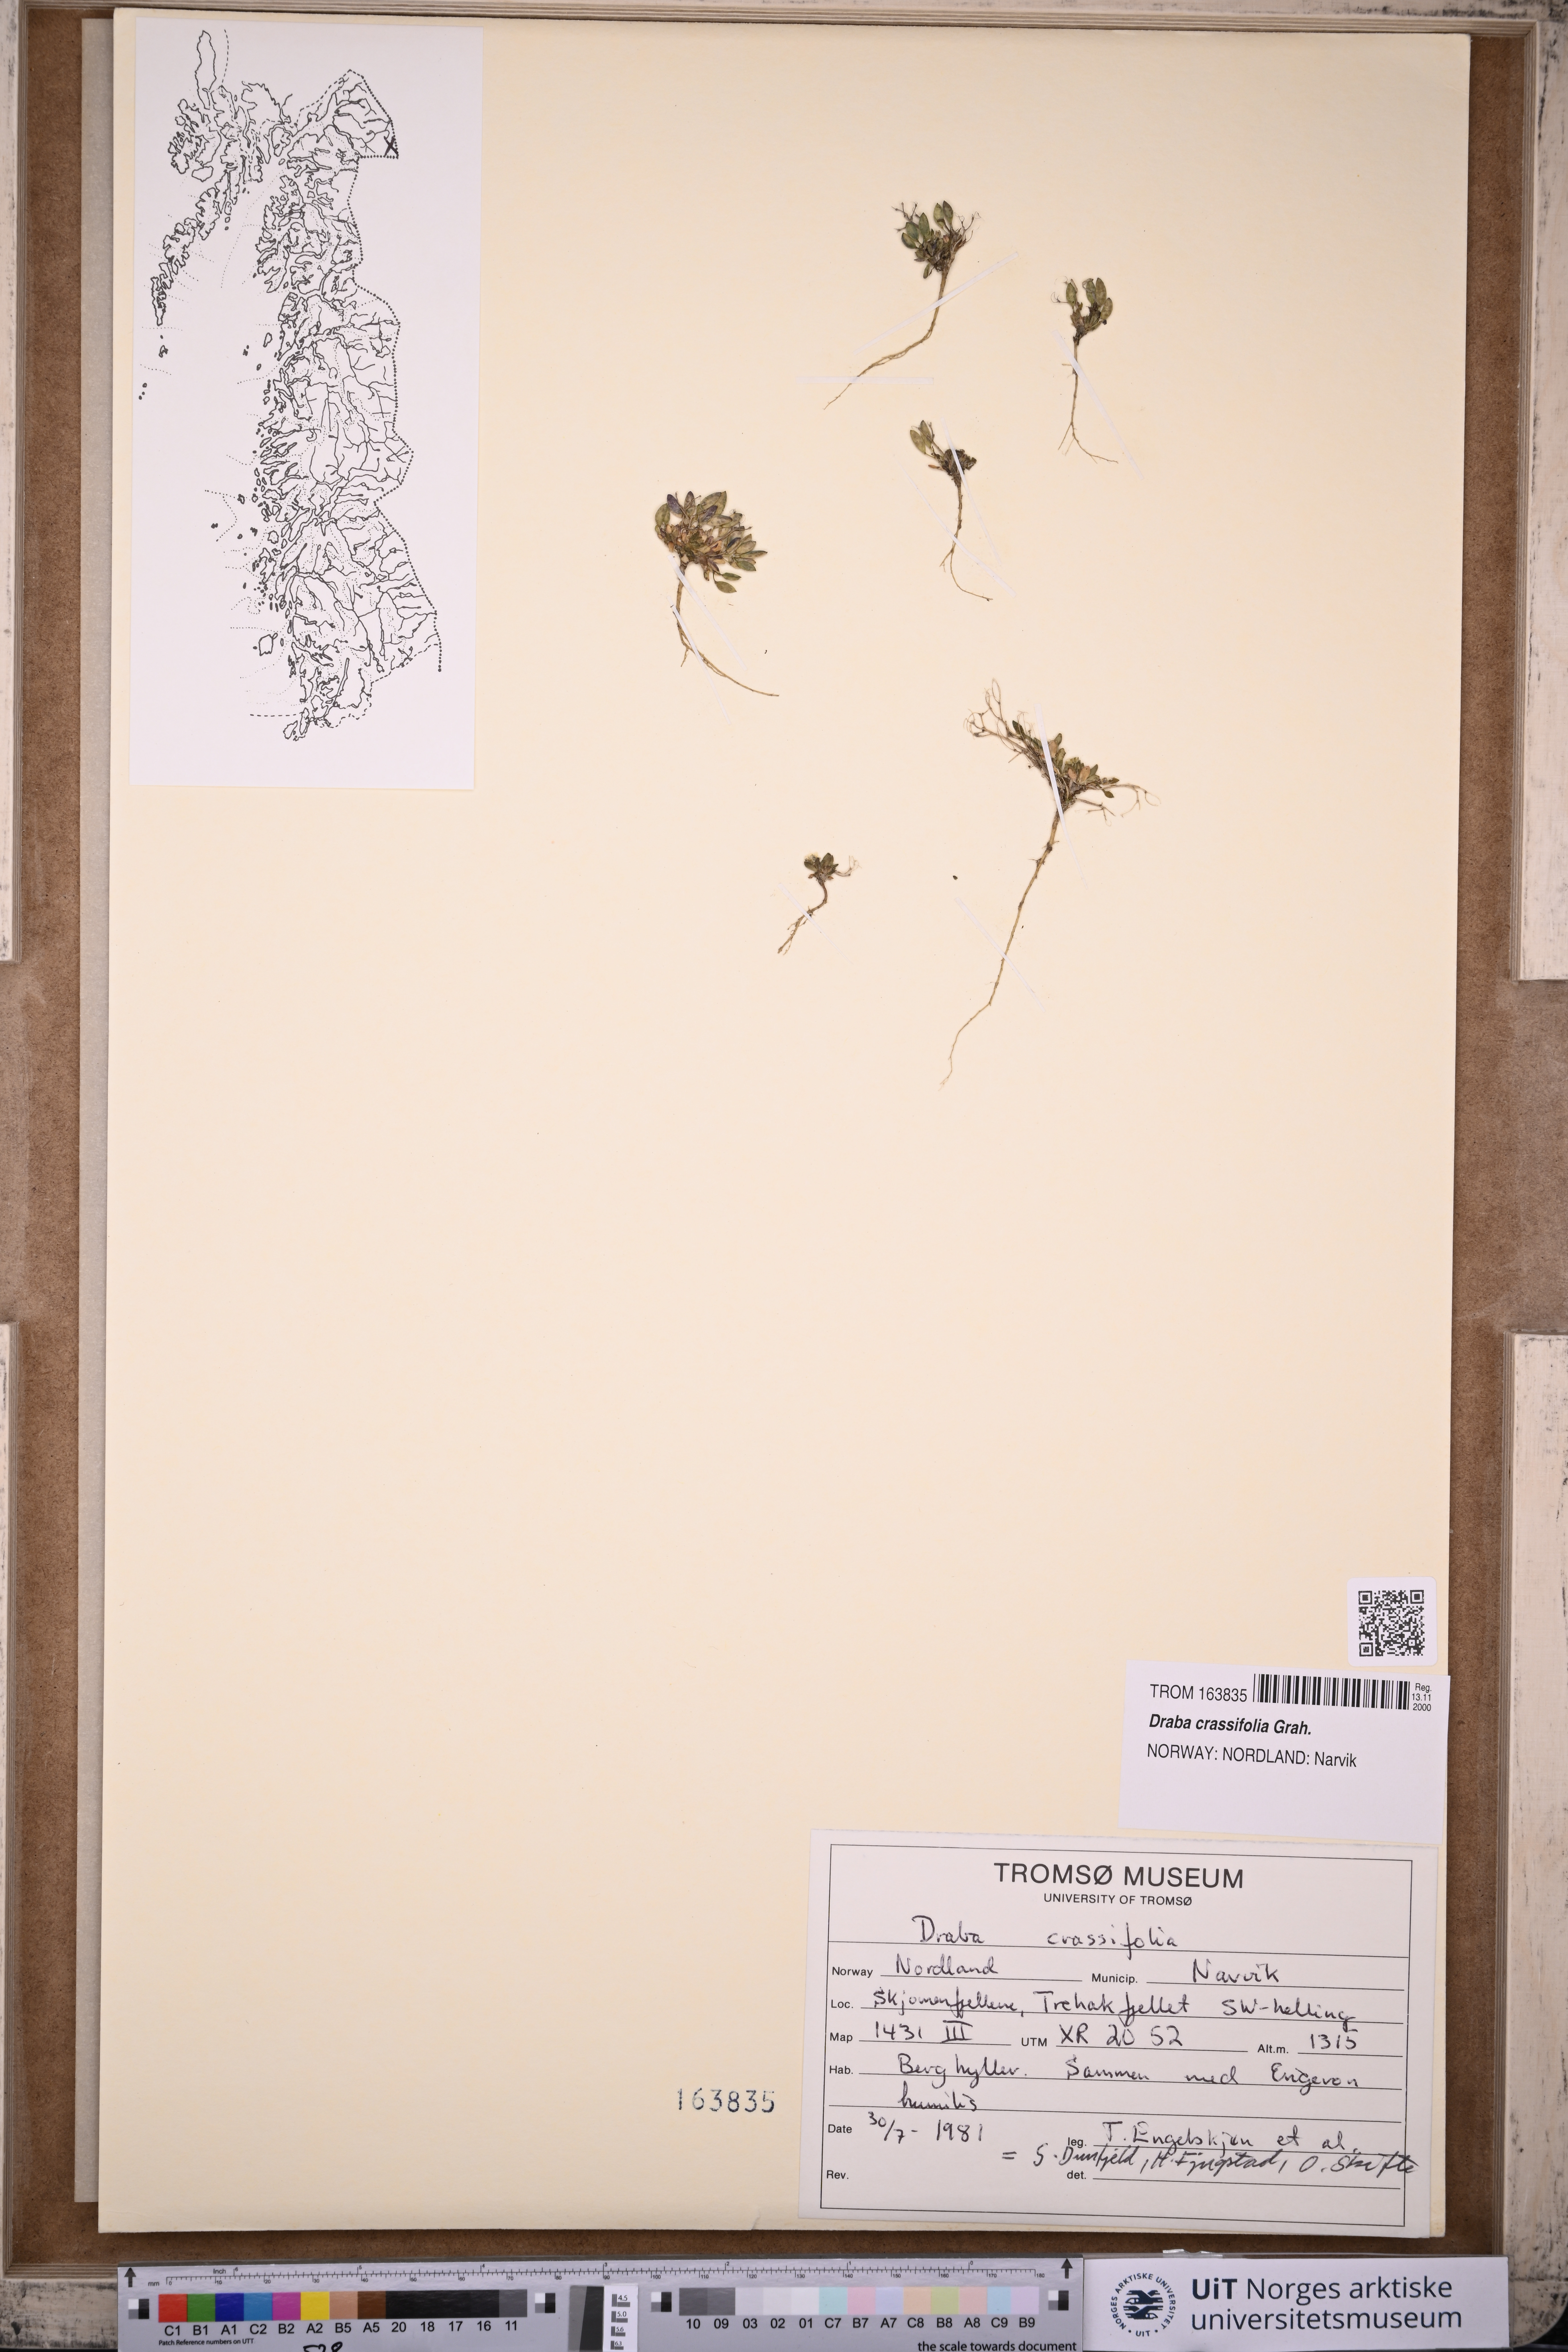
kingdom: Plantae
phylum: Tracheophyta
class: Magnoliopsida
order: Brassicales
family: Brassicaceae
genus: Draba
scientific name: Draba crassifolia
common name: Rocky mountain draba
